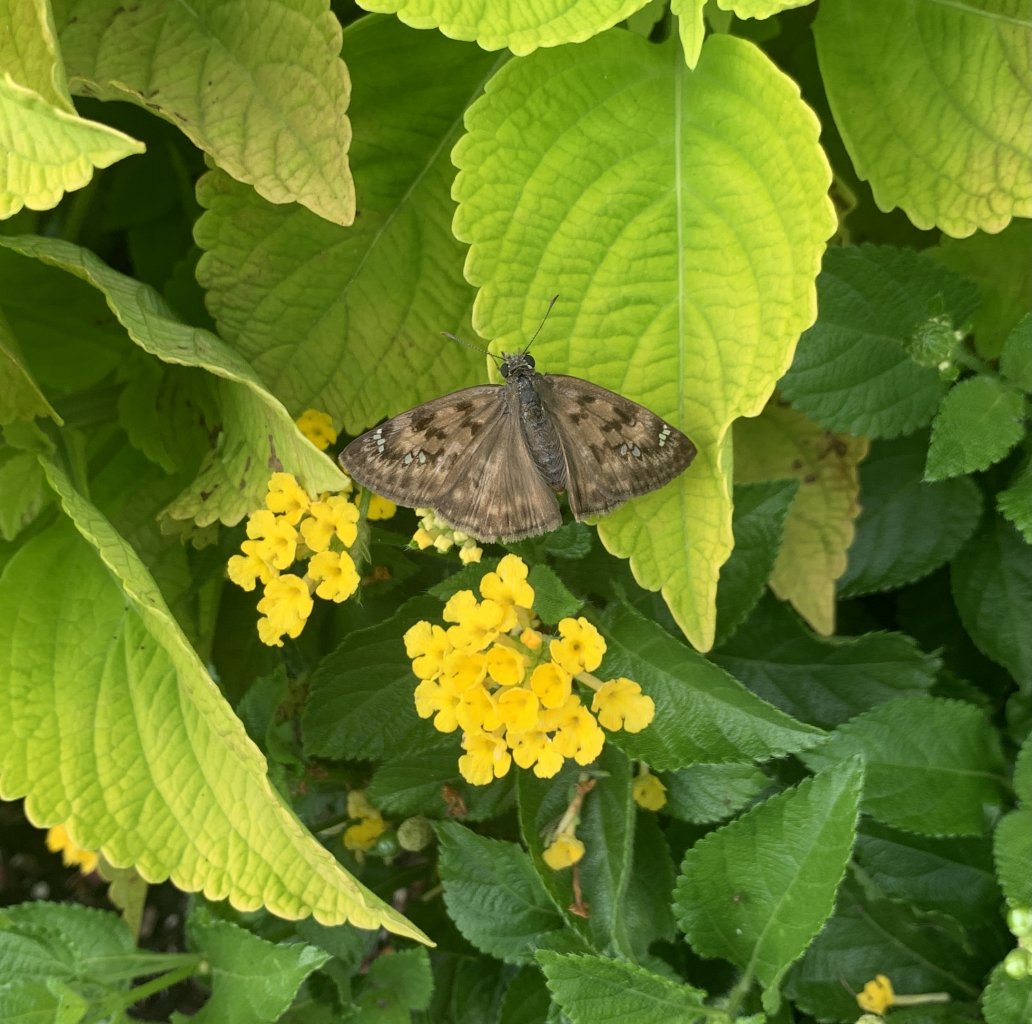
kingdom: Animalia
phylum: Arthropoda
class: Insecta
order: Lepidoptera
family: Hesperiidae
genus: Gesta
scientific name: Gesta
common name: Horace's Duskywing
